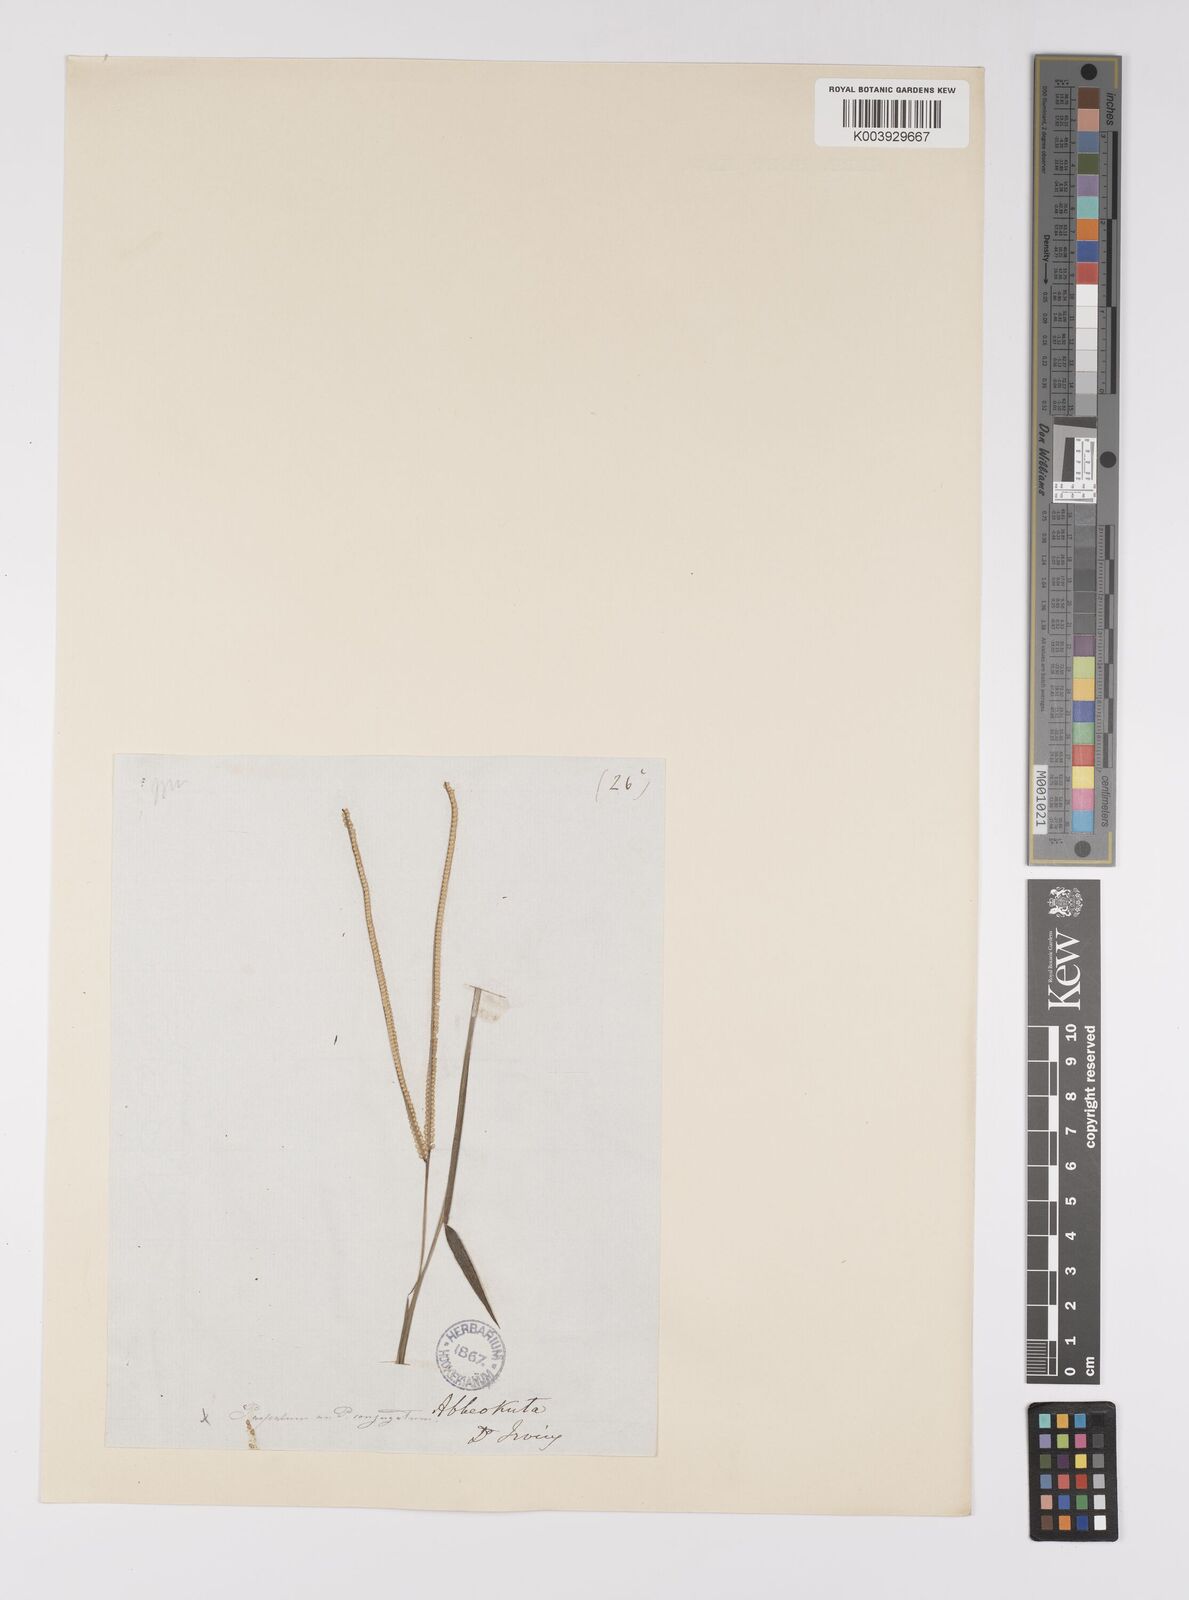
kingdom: Plantae
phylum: Tracheophyta
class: Liliopsida
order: Poales
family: Poaceae
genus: Paspalum
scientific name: Paspalum conjugatum
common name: Hilograss
